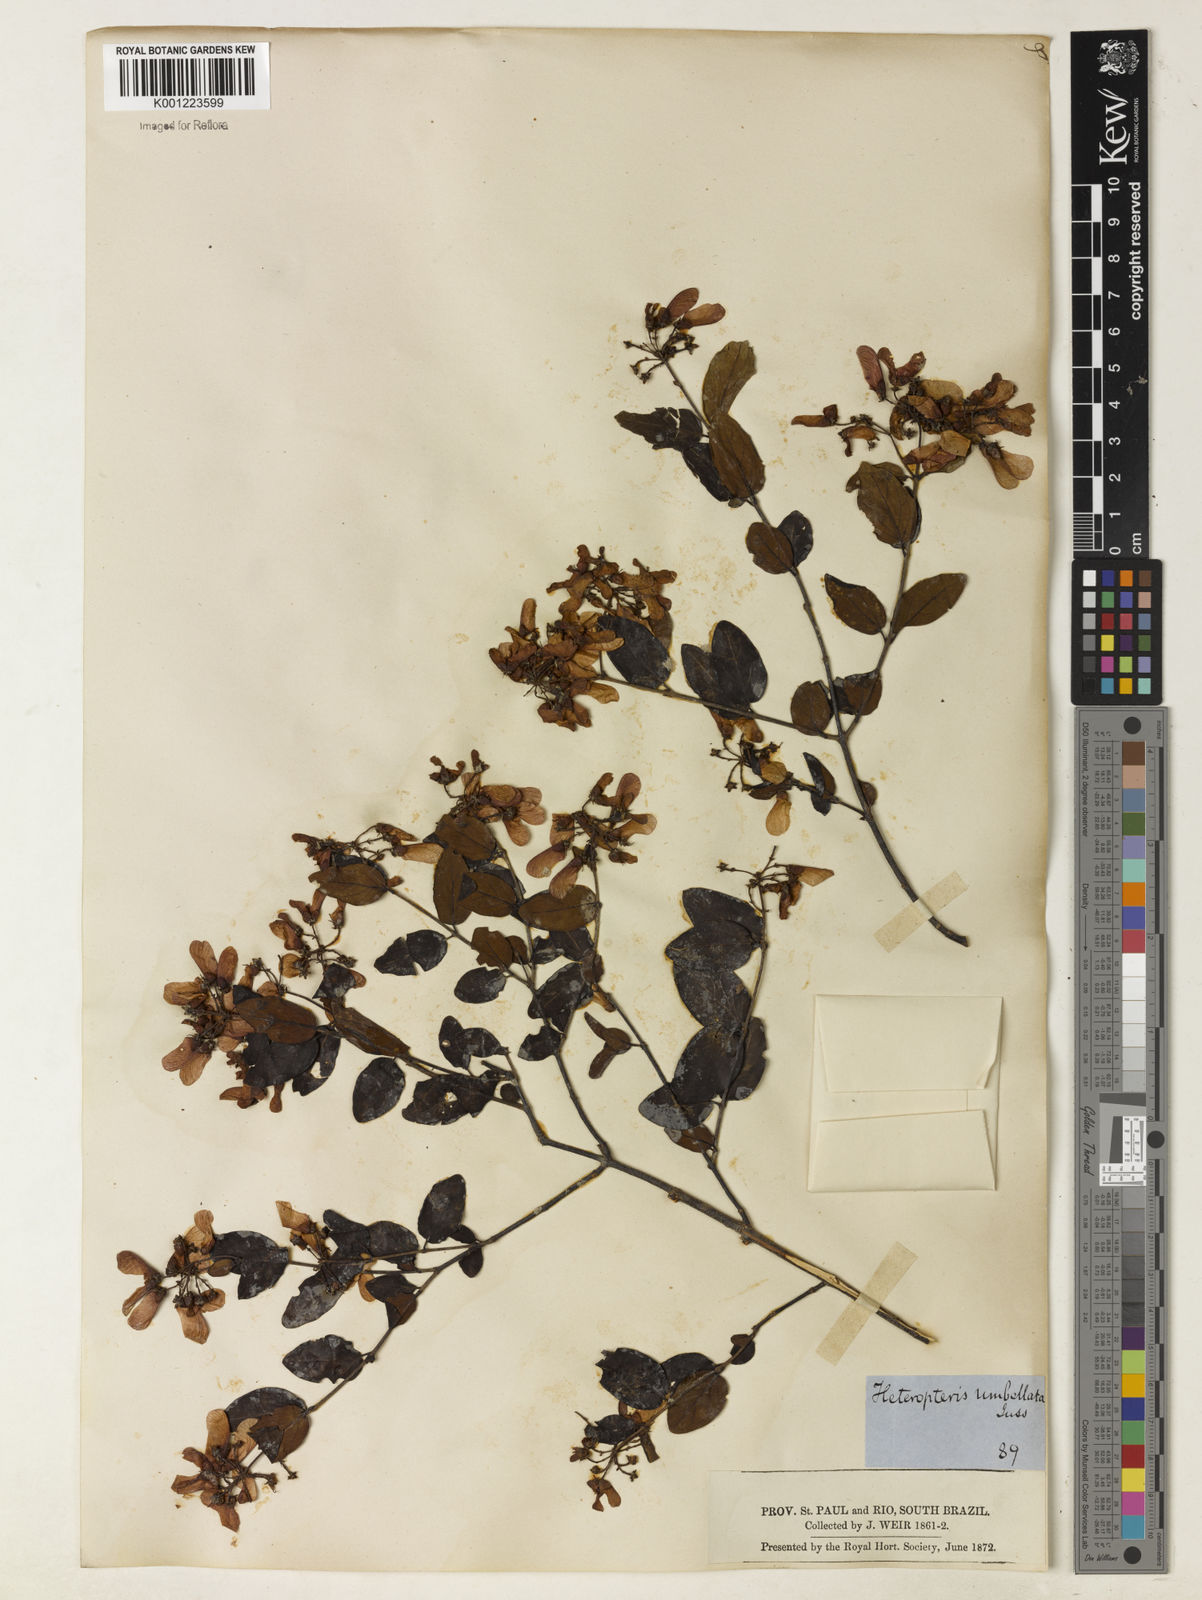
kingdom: Plantae
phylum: Tracheophyta
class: Magnoliopsida
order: Malpighiales
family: Malpighiaceae
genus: Heteropterys
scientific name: Heteropterys umbellata
